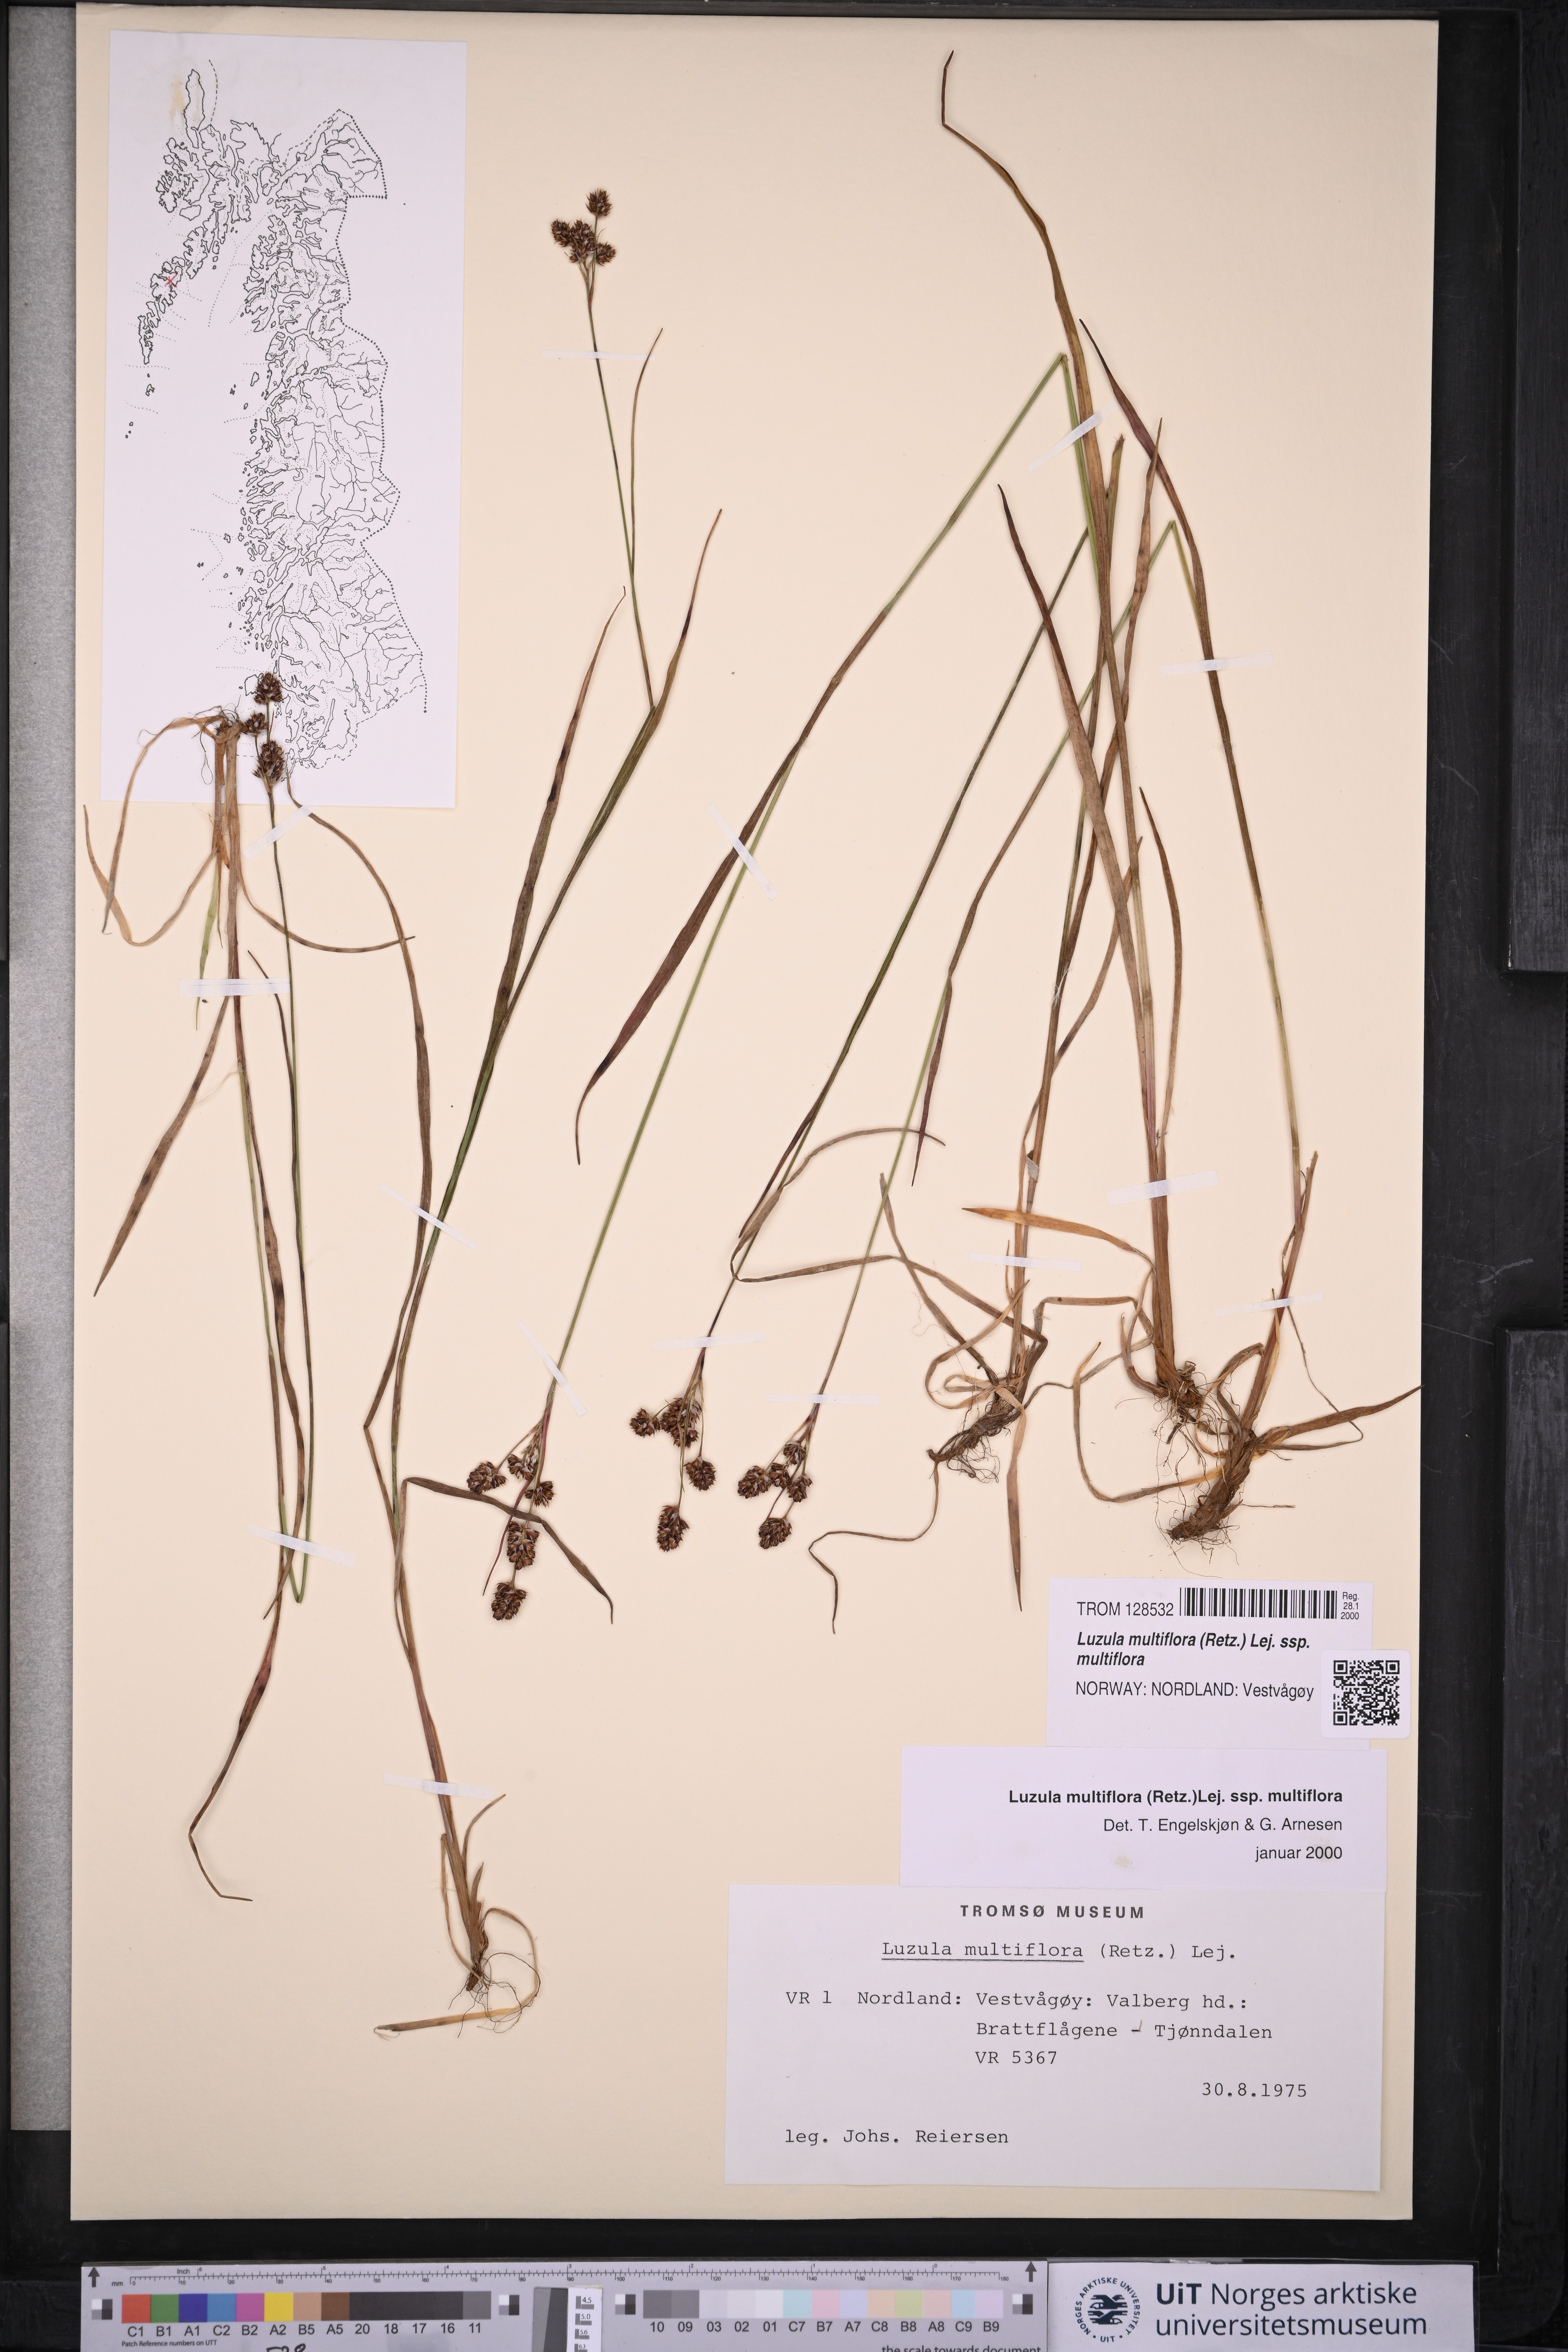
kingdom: Plantae
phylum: Tracheophyta
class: Liliopsida
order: Poales
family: Juncaceae
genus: Luzula
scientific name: Luzula multiflora
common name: Heath wood-rush
